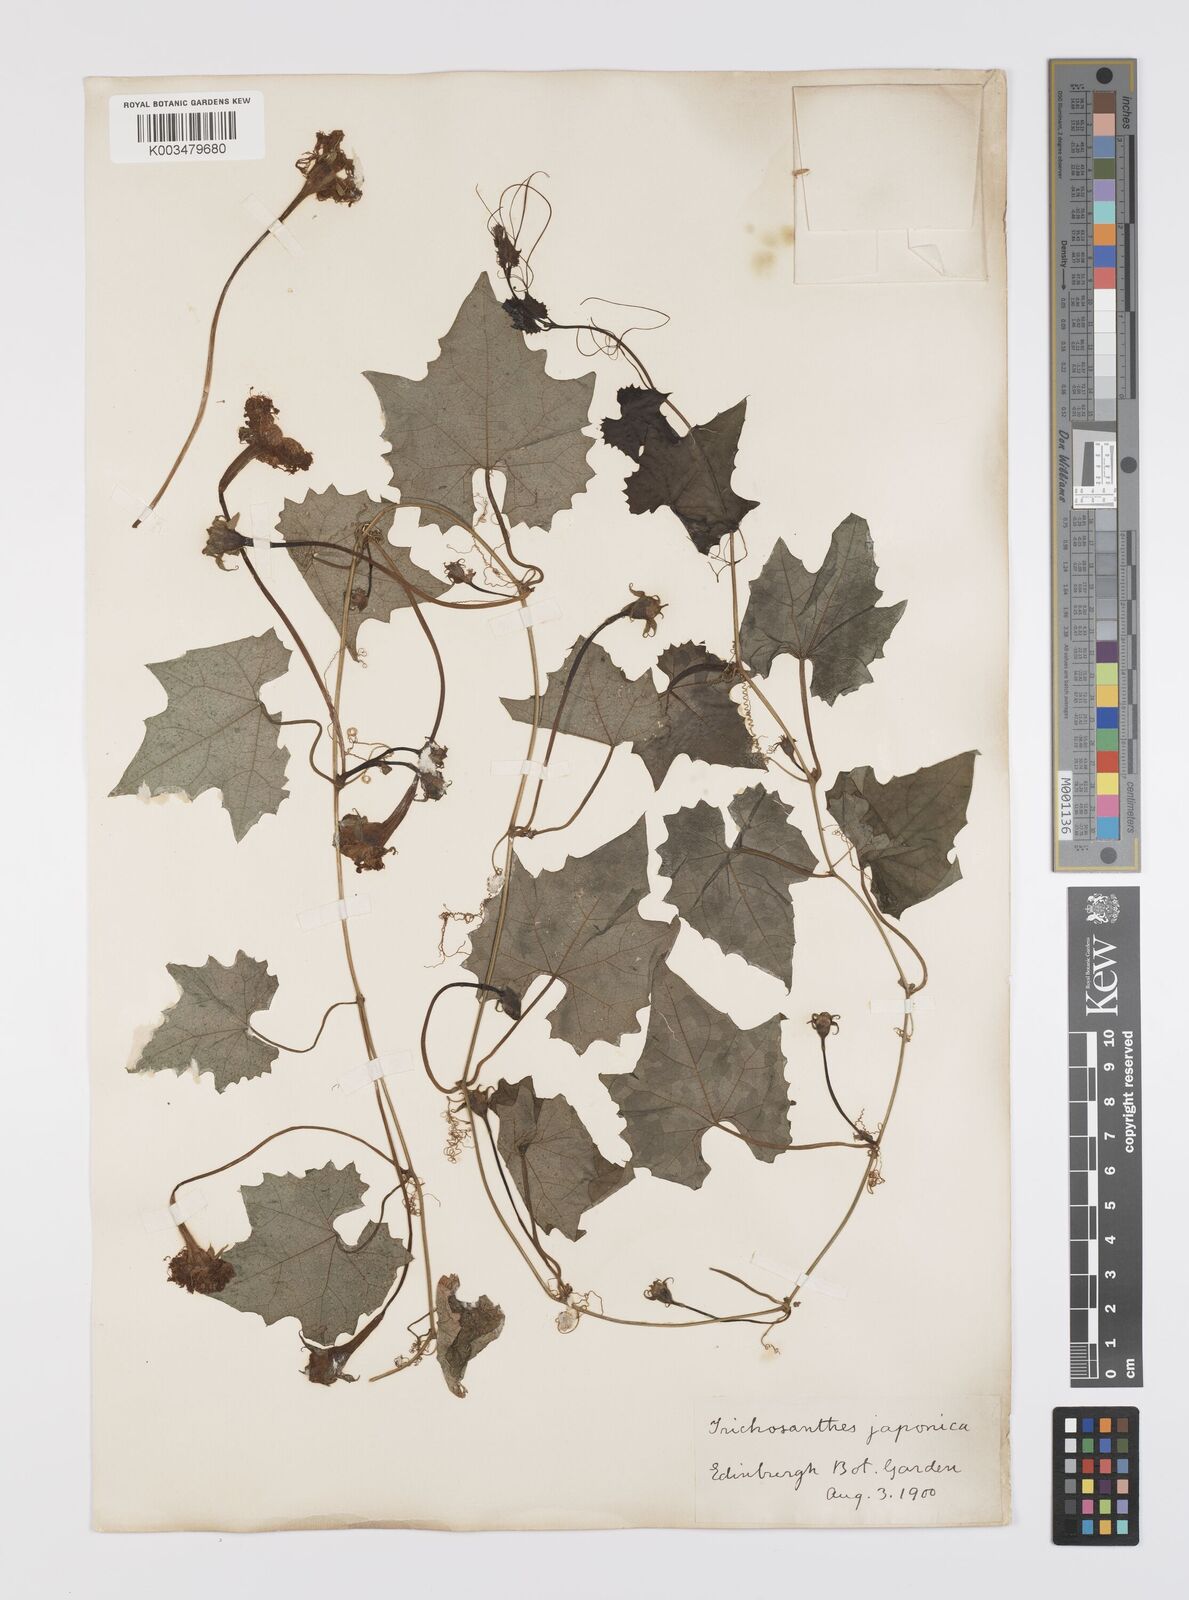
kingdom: Plantae
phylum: Tracheophyta
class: Magnoliopsida
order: Cucurbitales
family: Cucurbitaceae
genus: Trichosanthes
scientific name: Trichosanthes kirilowii
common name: Chinese-cucumber
